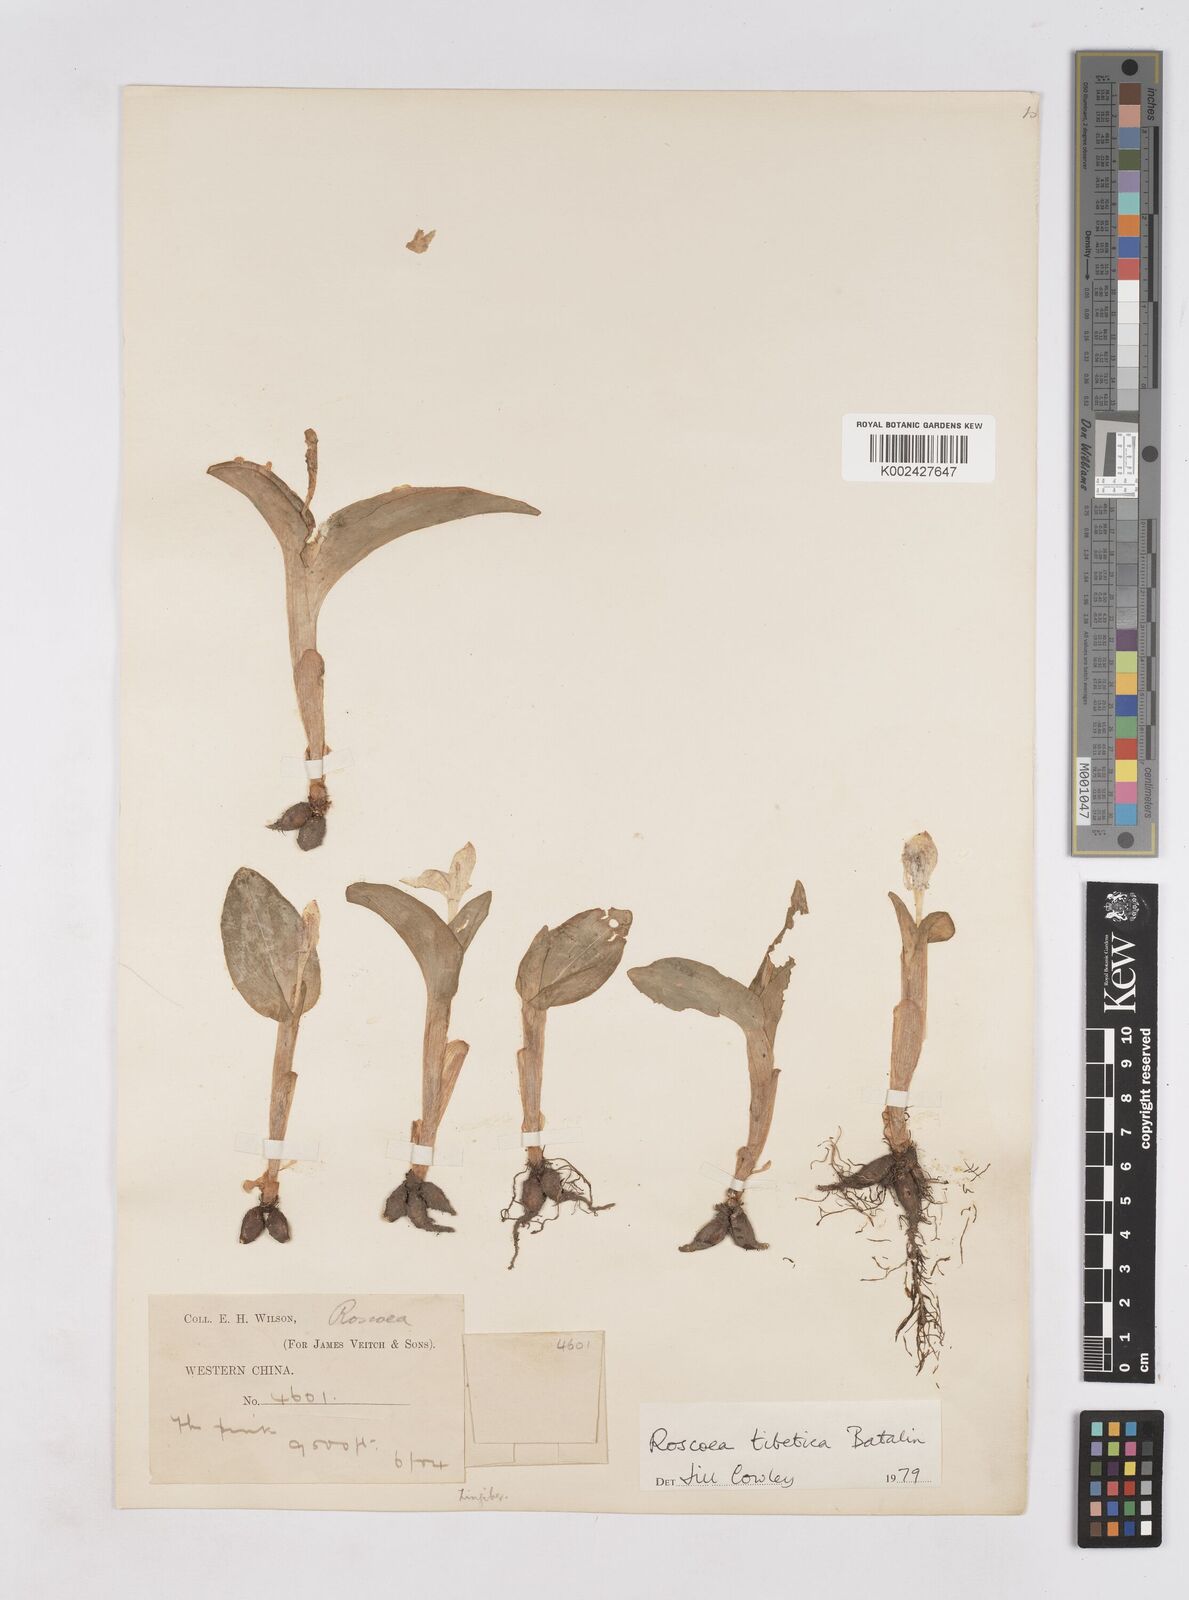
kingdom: Plantae
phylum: Tracheophyta
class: Liliopsida
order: Zingiberales
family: Zingiberaceae
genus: Roscoea
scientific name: Roscoea tibetica
